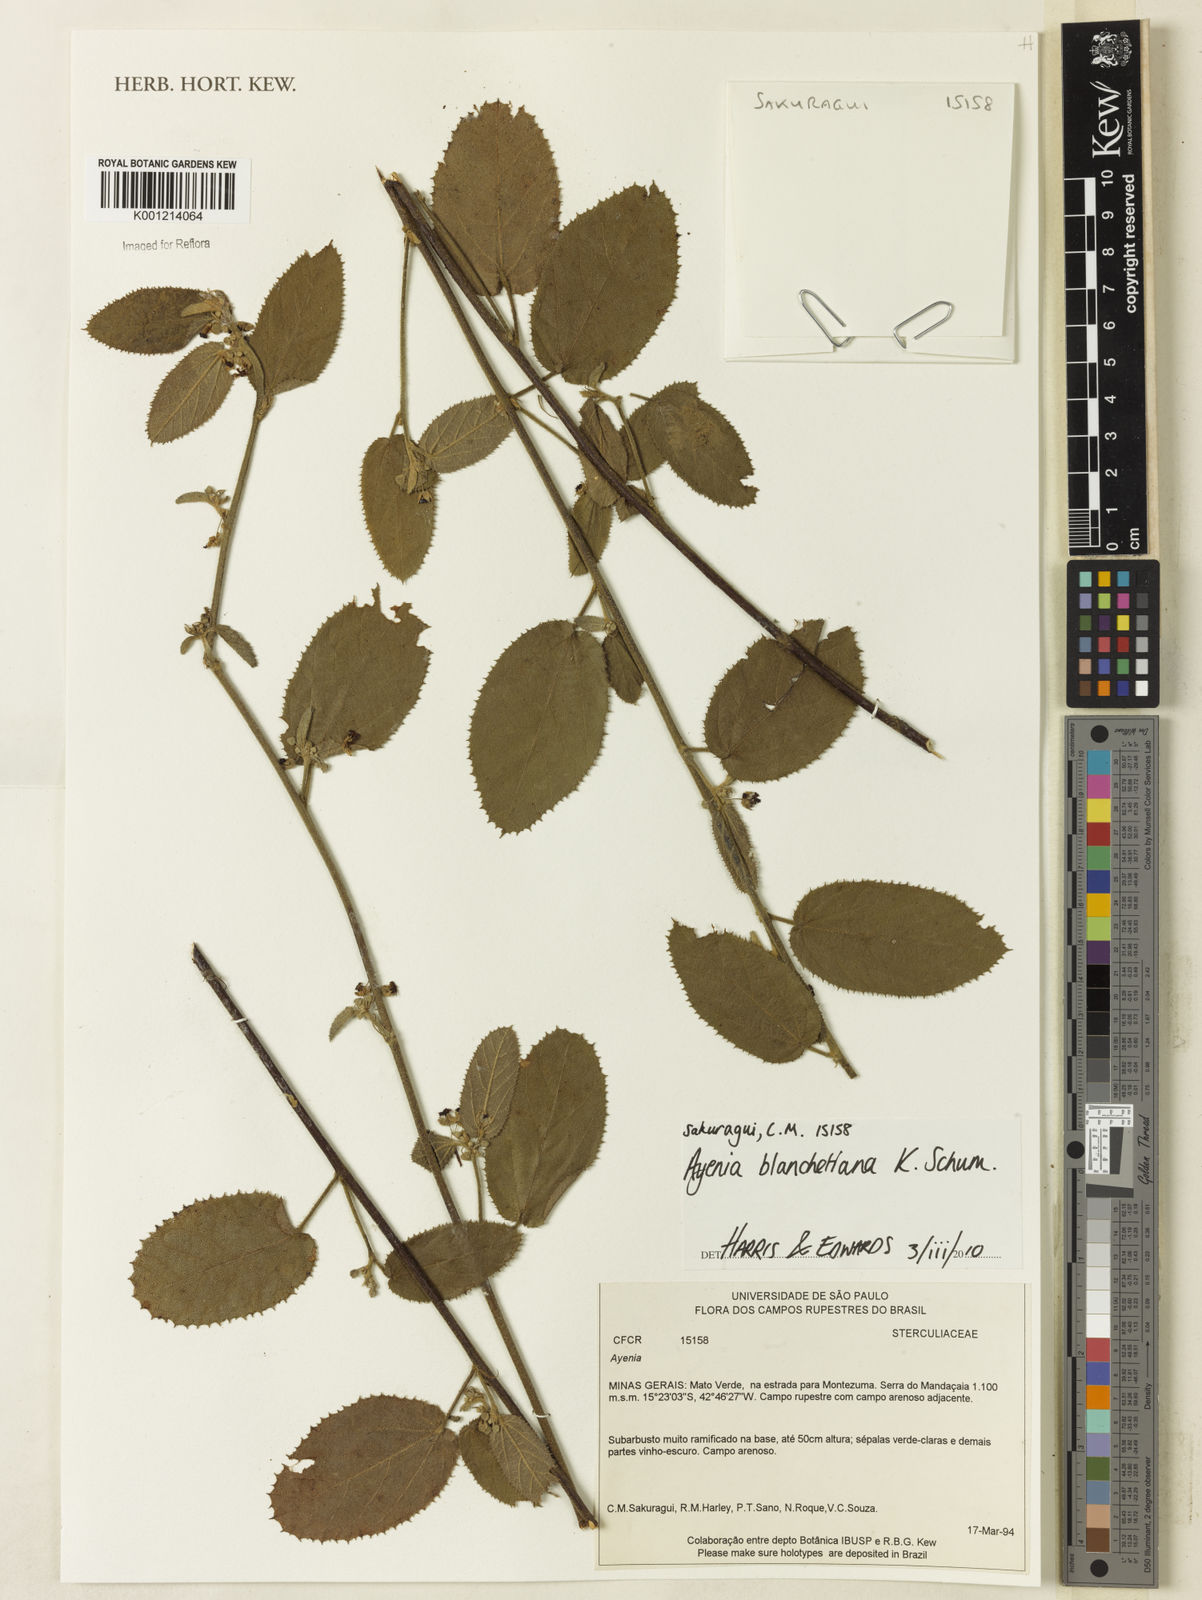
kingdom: Plantae
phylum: Tracheophyta
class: Magnoliopsida
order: Malvales
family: Malvaceae
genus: Ayenia
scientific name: Ayenia blanchetiana
